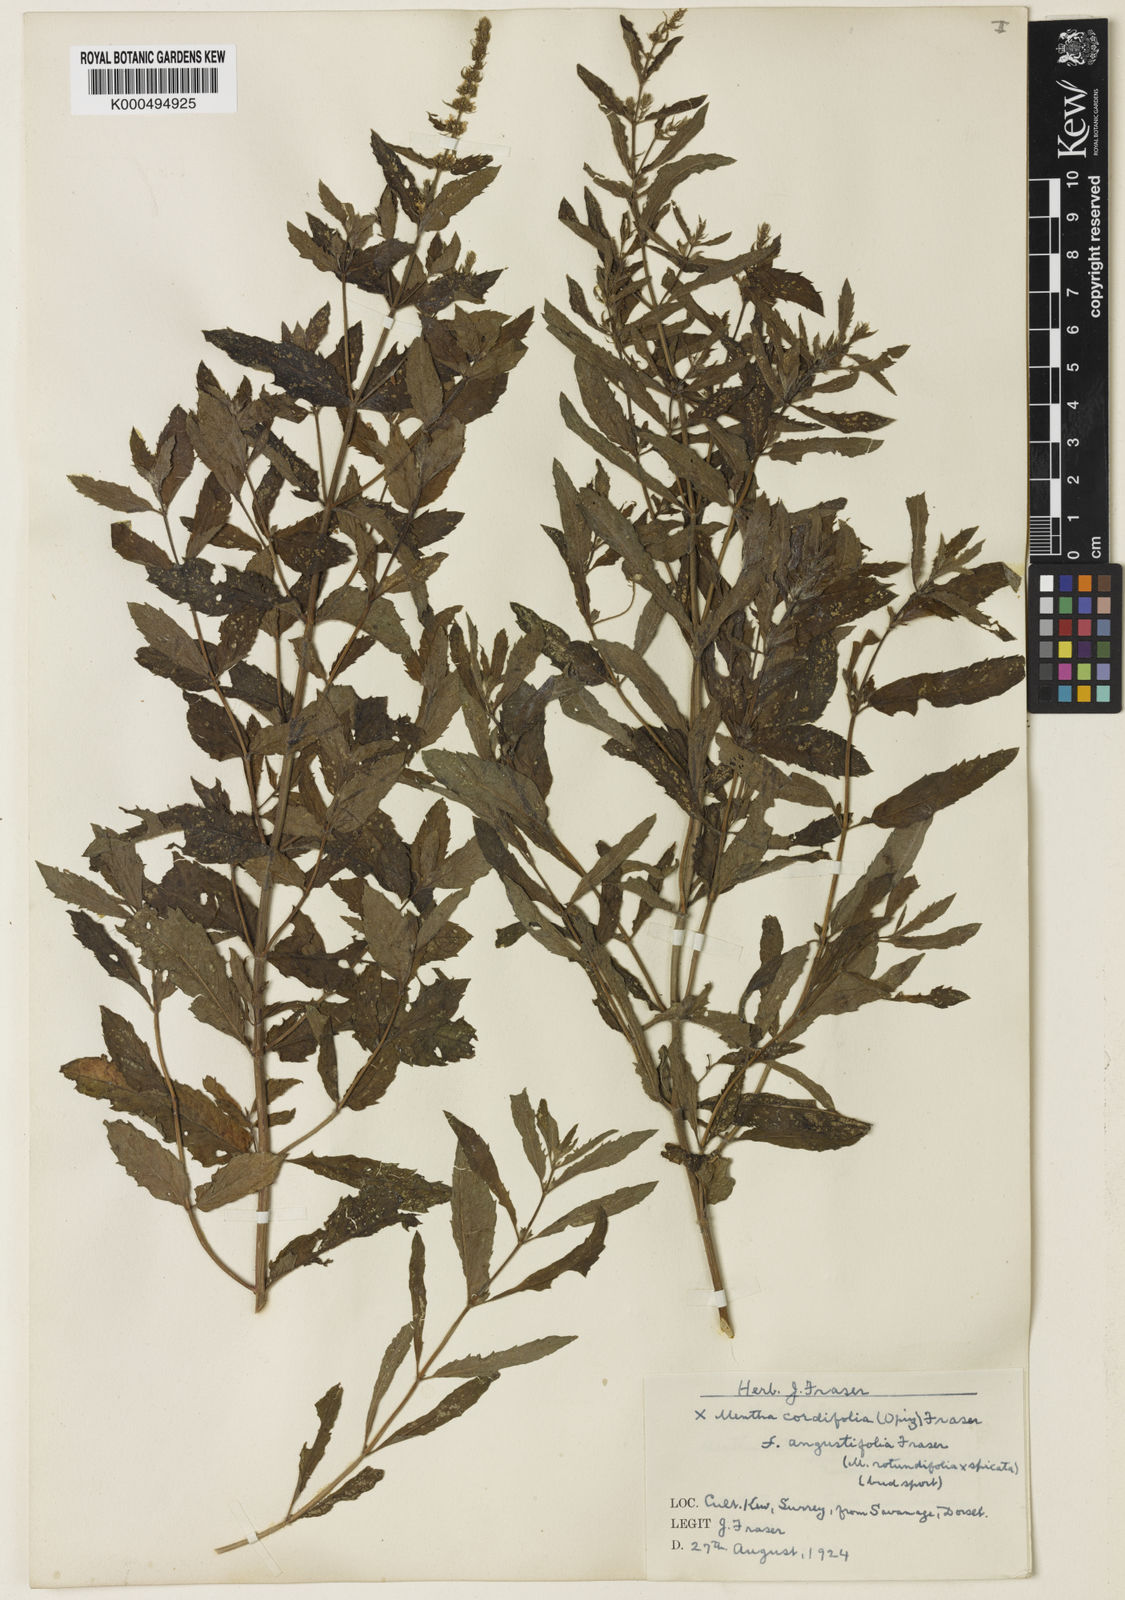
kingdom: Plantae
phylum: Tracheophyta
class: Magnoliopsida
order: Lamiales
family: Lamiaceae
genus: Mentha
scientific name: Mentha spicata
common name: Spearmint
